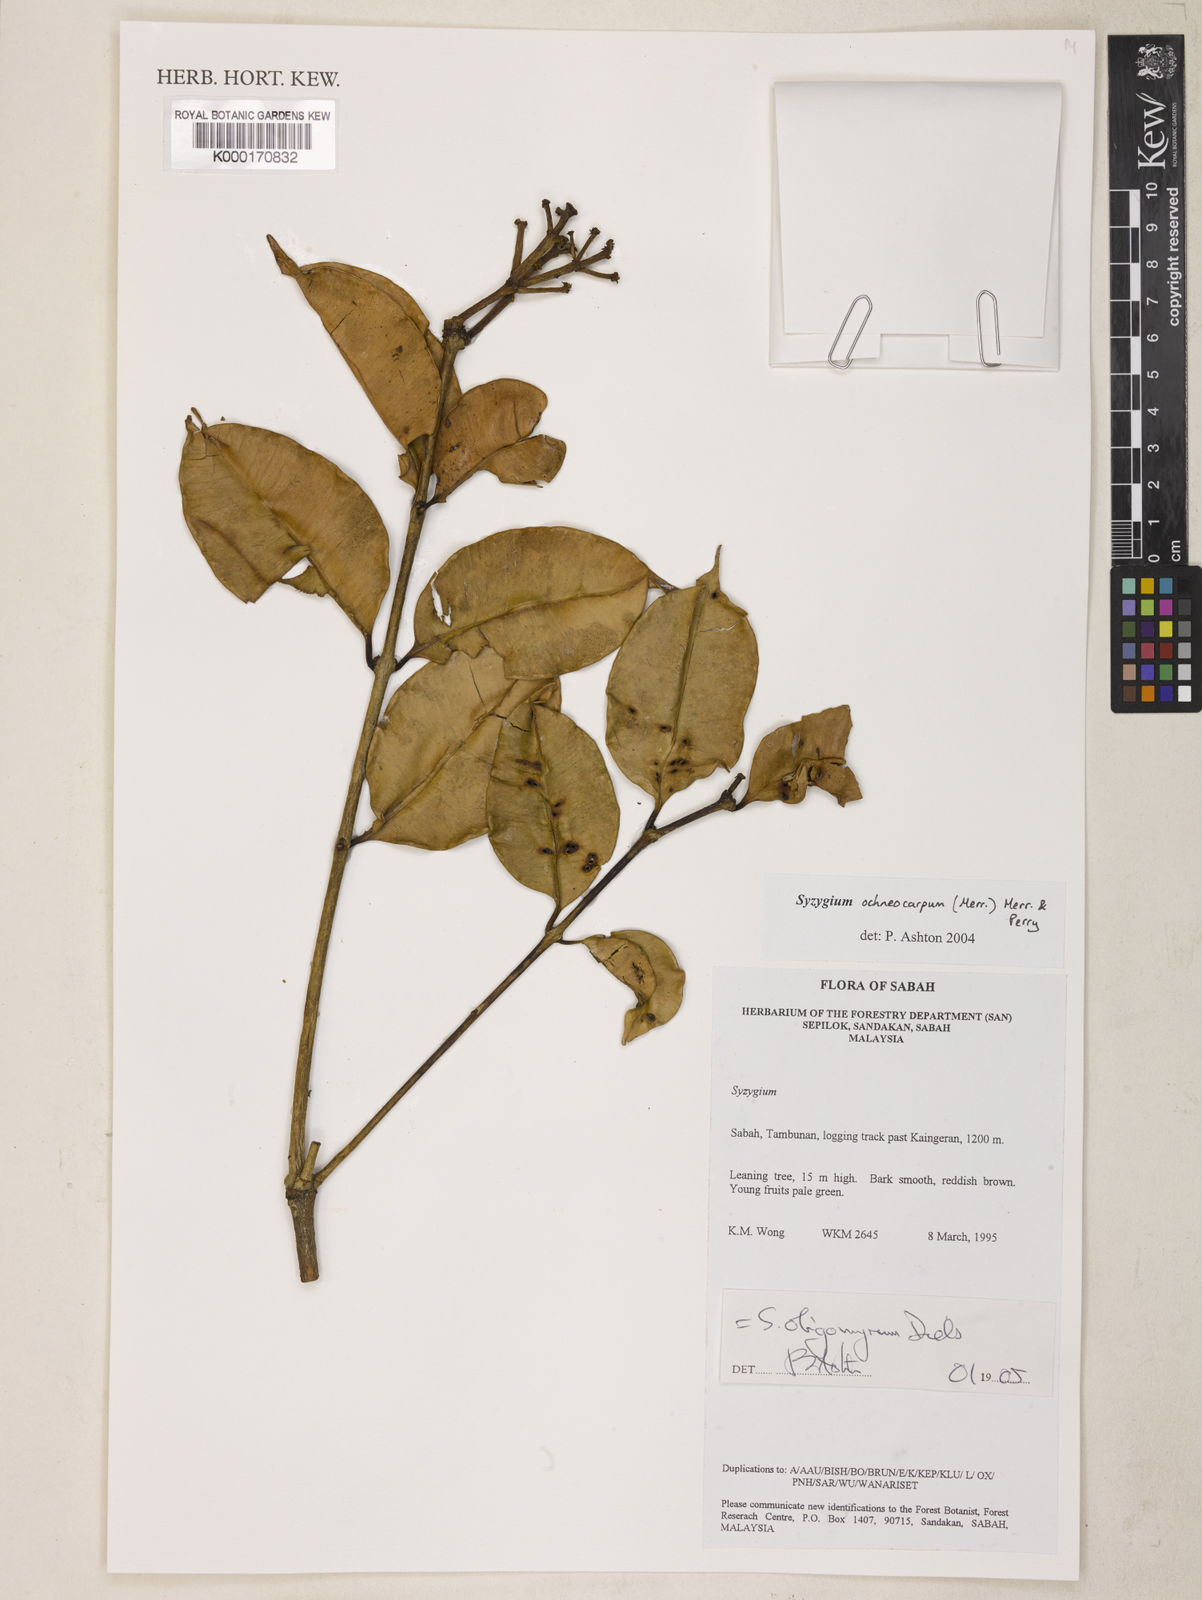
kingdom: Plantae
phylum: Tracheophyta
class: Magnoliopsida
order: Myrtales
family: Myrtaceae
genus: Syzygium
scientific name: Syzygium oligomyrum
